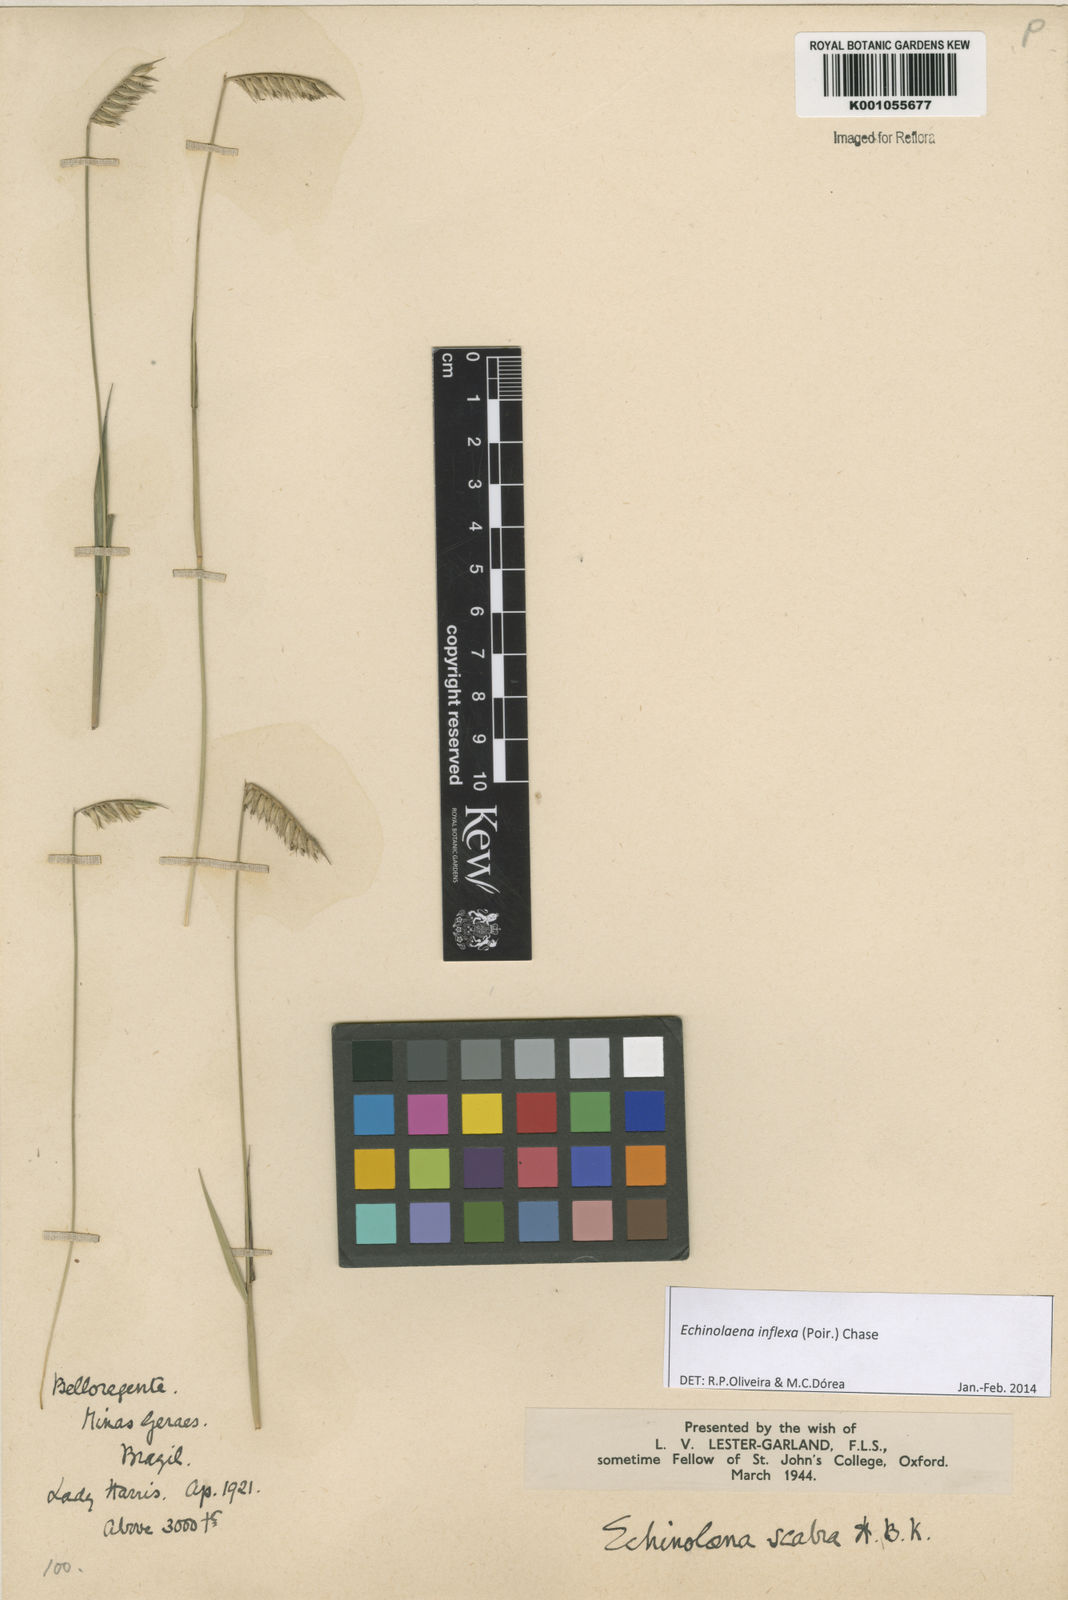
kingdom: Plantae
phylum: Tracheophyta
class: Liliopsida
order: Poales
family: Poaceae
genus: Echinolaena
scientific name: Echinolaena inflexa
